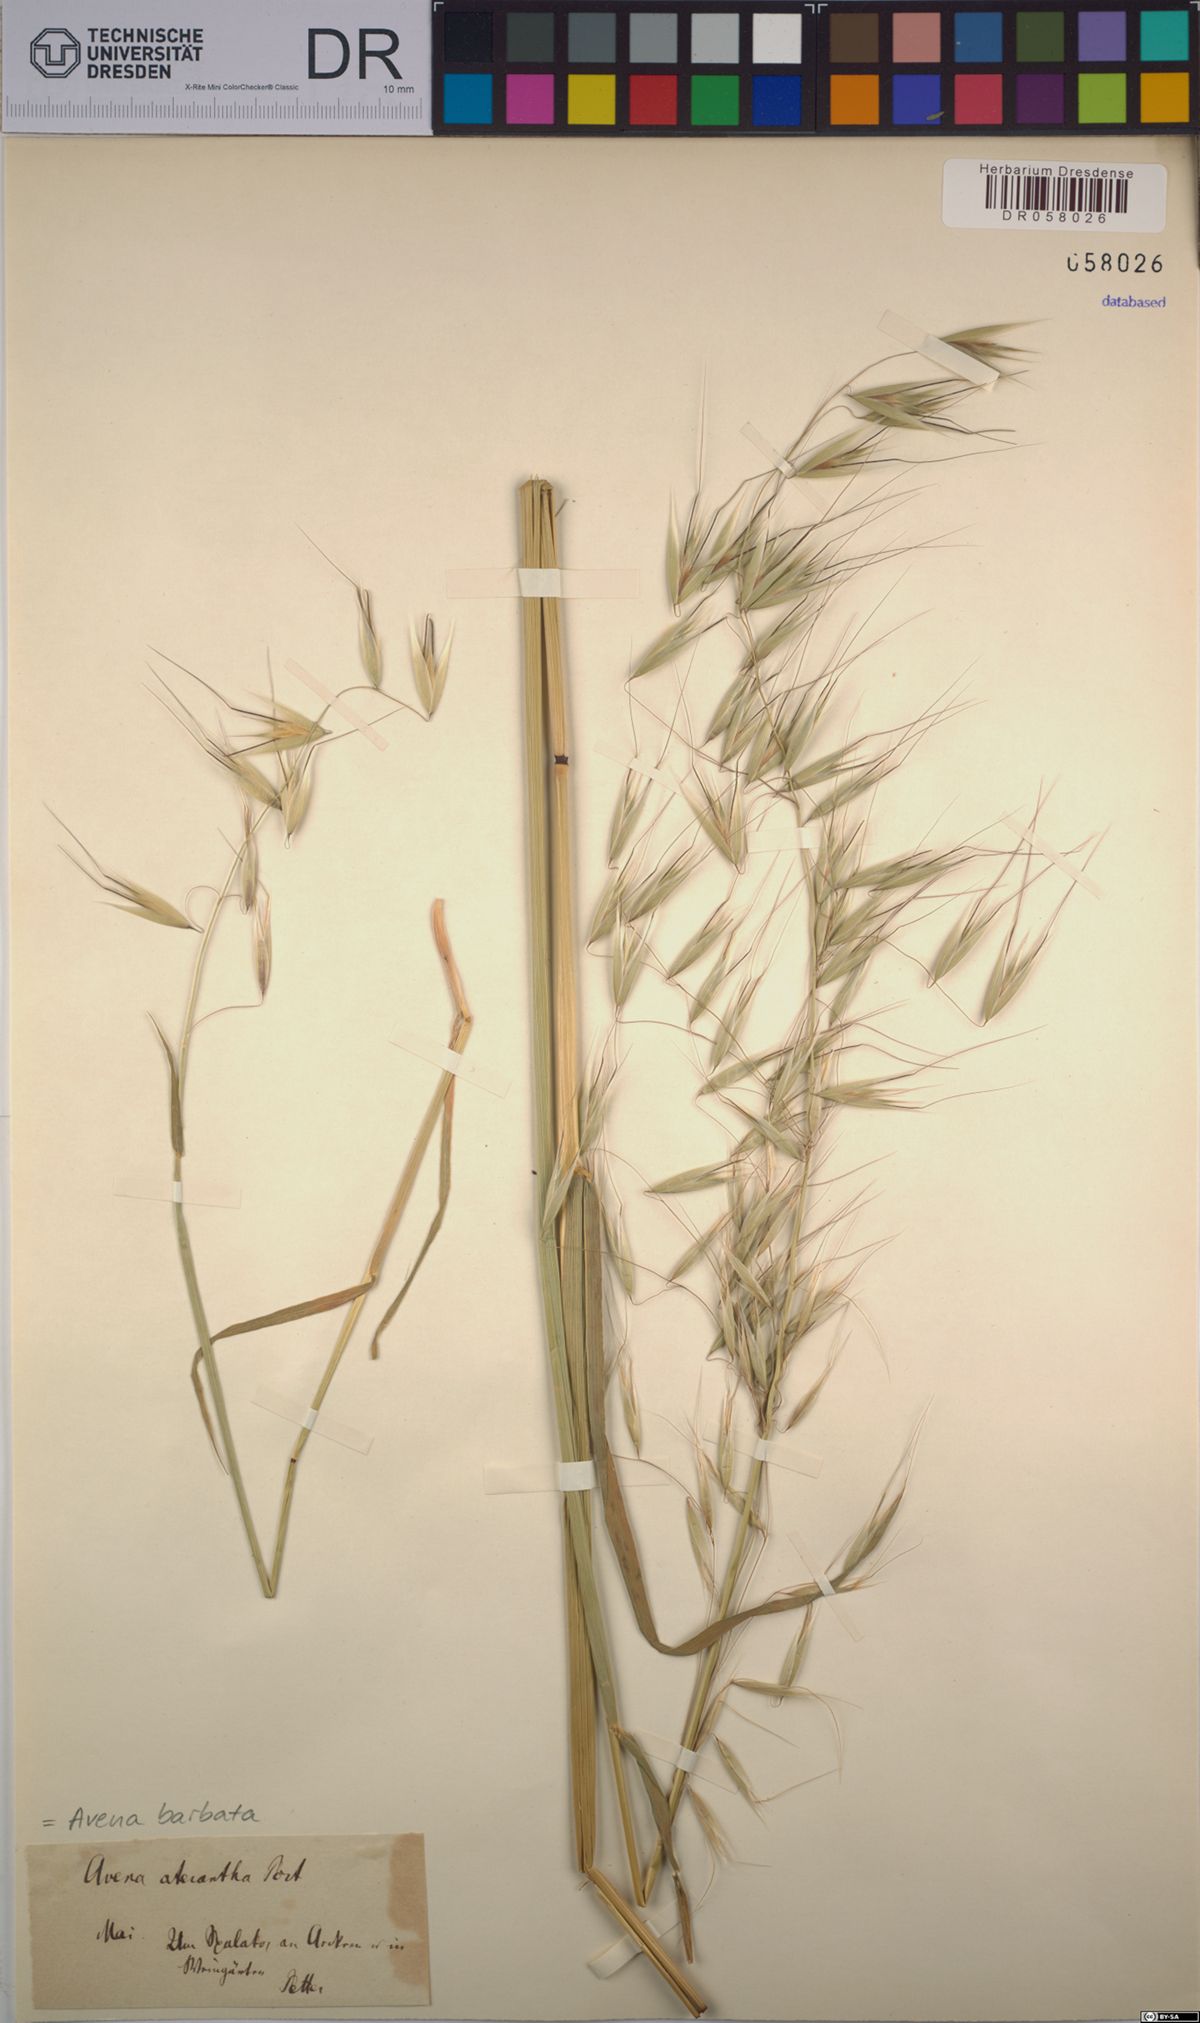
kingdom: Plantae
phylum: Tracheophyta
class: Liliopsida
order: Poales
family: Poaceae
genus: Avena
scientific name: Avena barbata
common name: Slender oat
